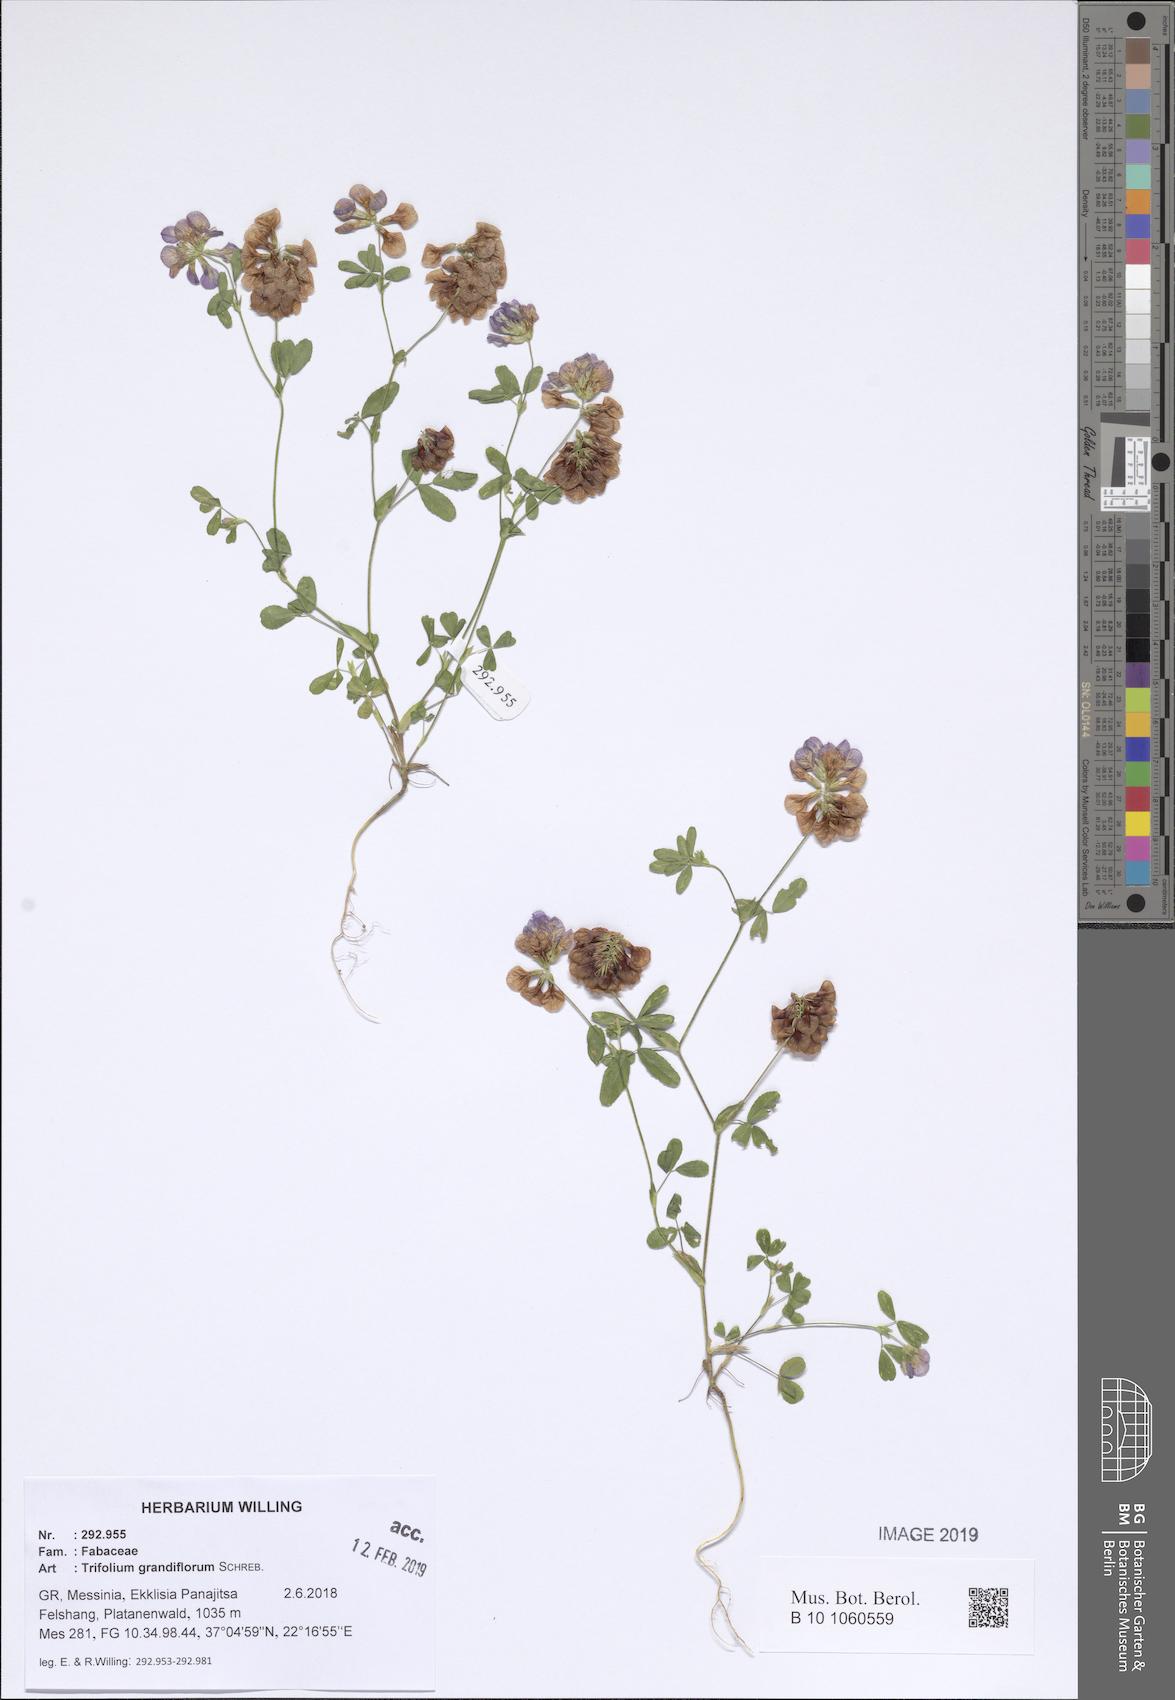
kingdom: Plantae
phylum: Tracheophyta
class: Magnoliopsida
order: Fabales
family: Fabaceae
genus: Trifolium
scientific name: Trifolium grandiflorum
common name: Large-flower hop clover
